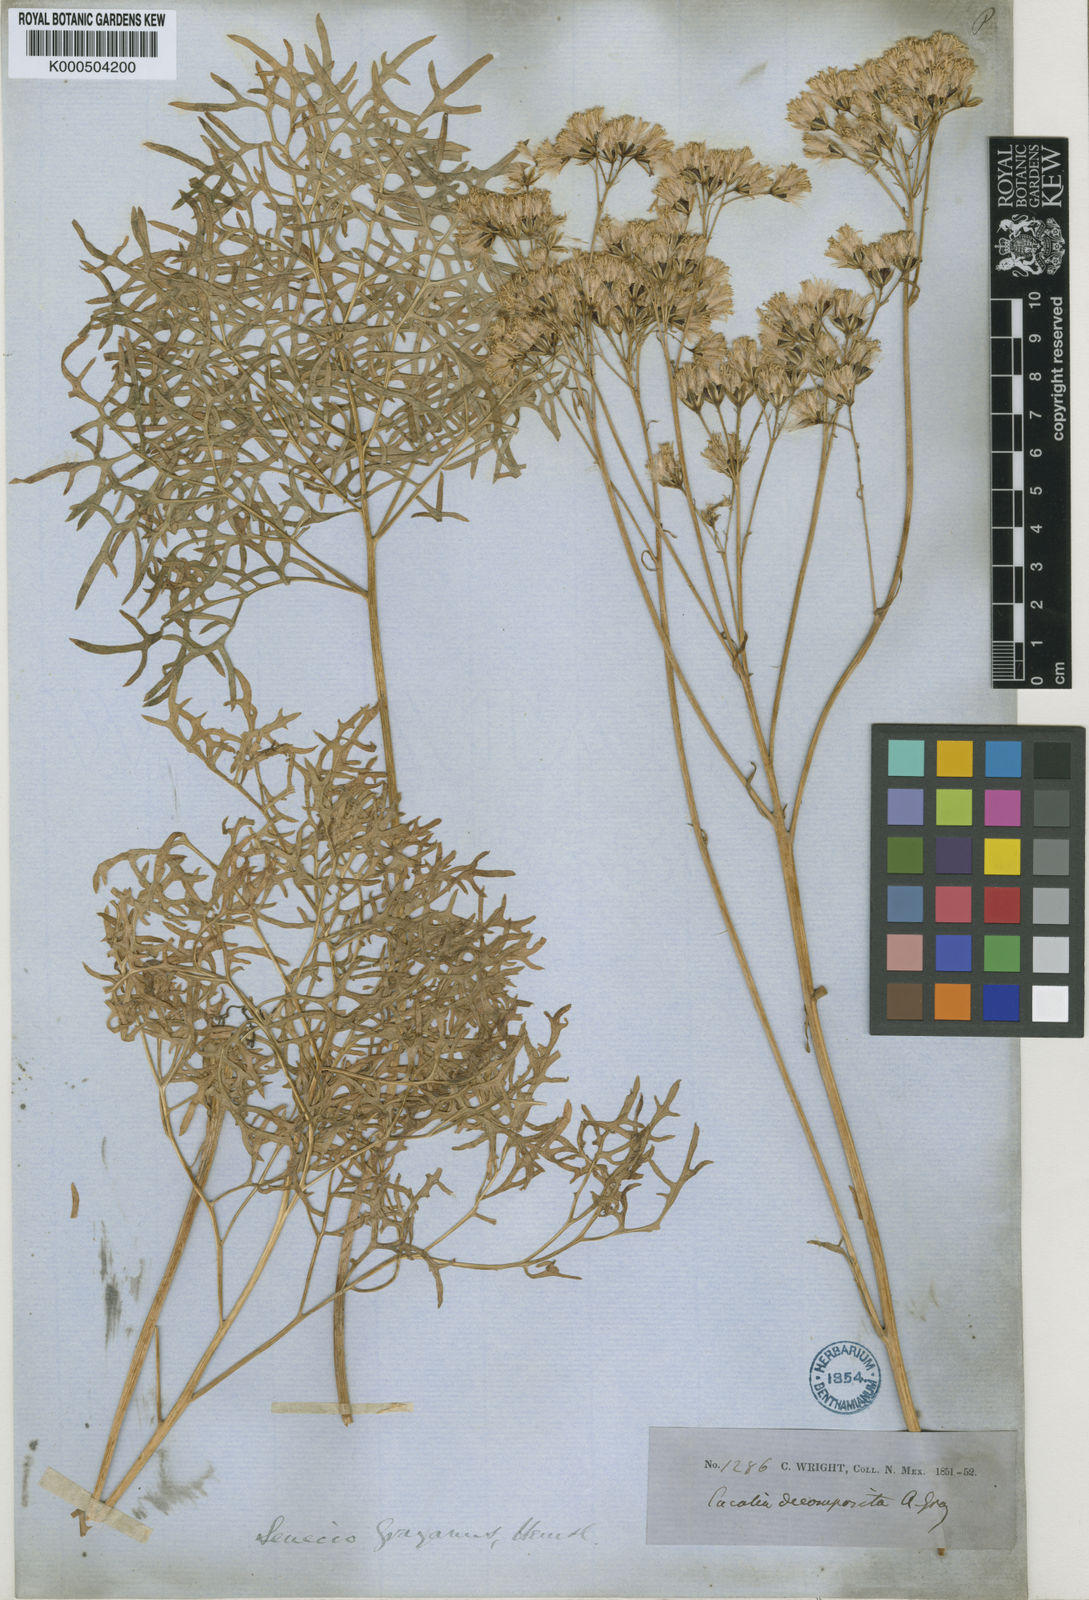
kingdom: Plantae
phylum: Tracheophyta
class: Magnoliopsida
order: Asterales
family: Asteraceae
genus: Psacalium
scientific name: Psacalium decompositum
